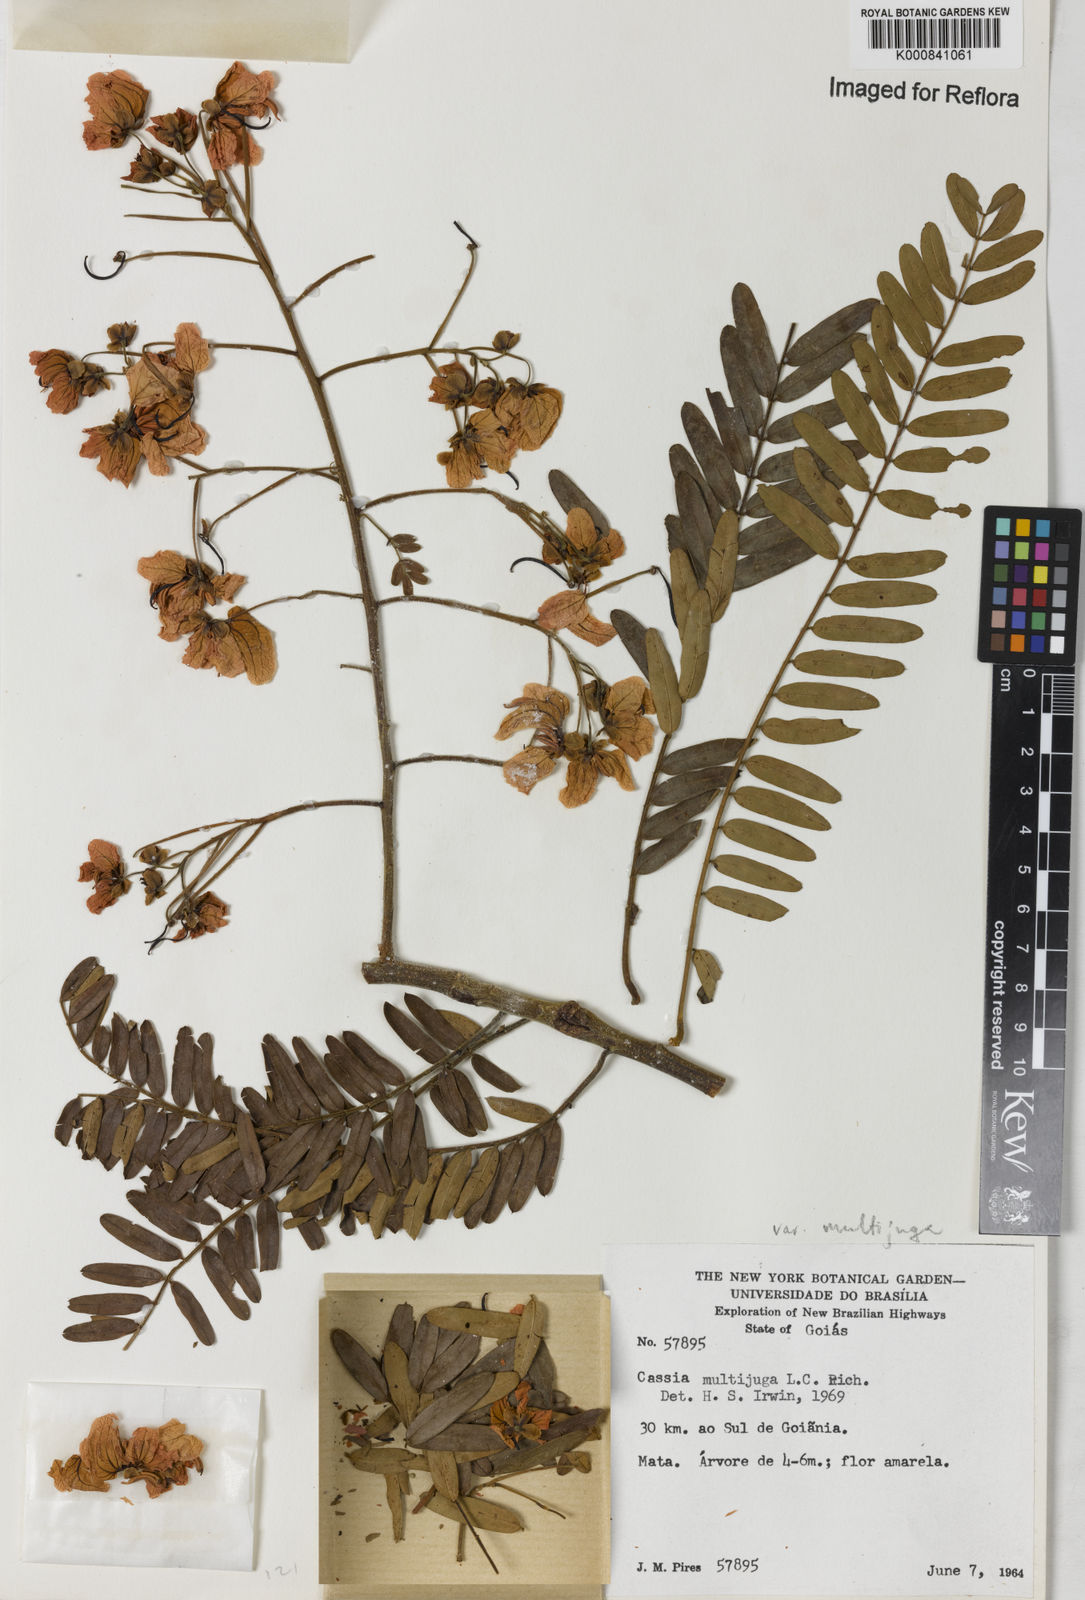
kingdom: Plantae
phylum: Tracheophyta
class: Magnoliopsida
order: Fabales
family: Fabaceae
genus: Senna
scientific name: Senna multijuga
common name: False sicklepod
